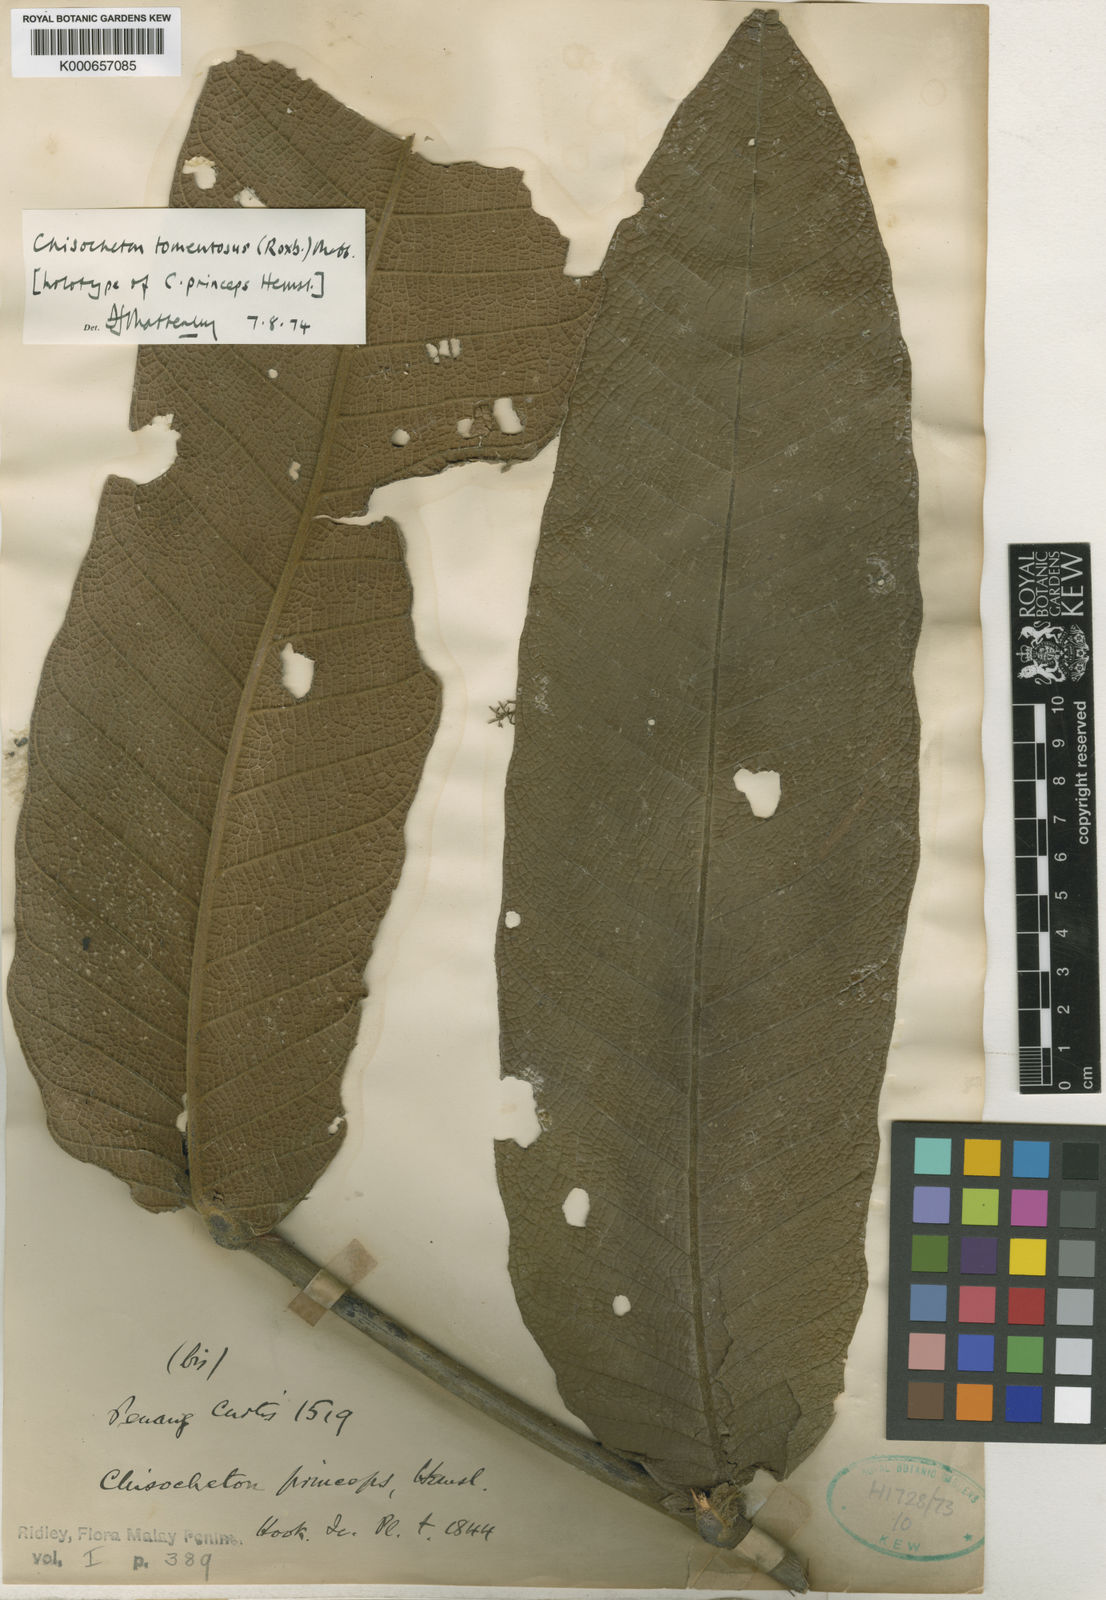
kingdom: Plantae
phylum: Tracheophyta
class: Magnoliopsida
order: Sapindales
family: Meliaceae
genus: Chisocheton
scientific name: Chisocheton tomentosus
